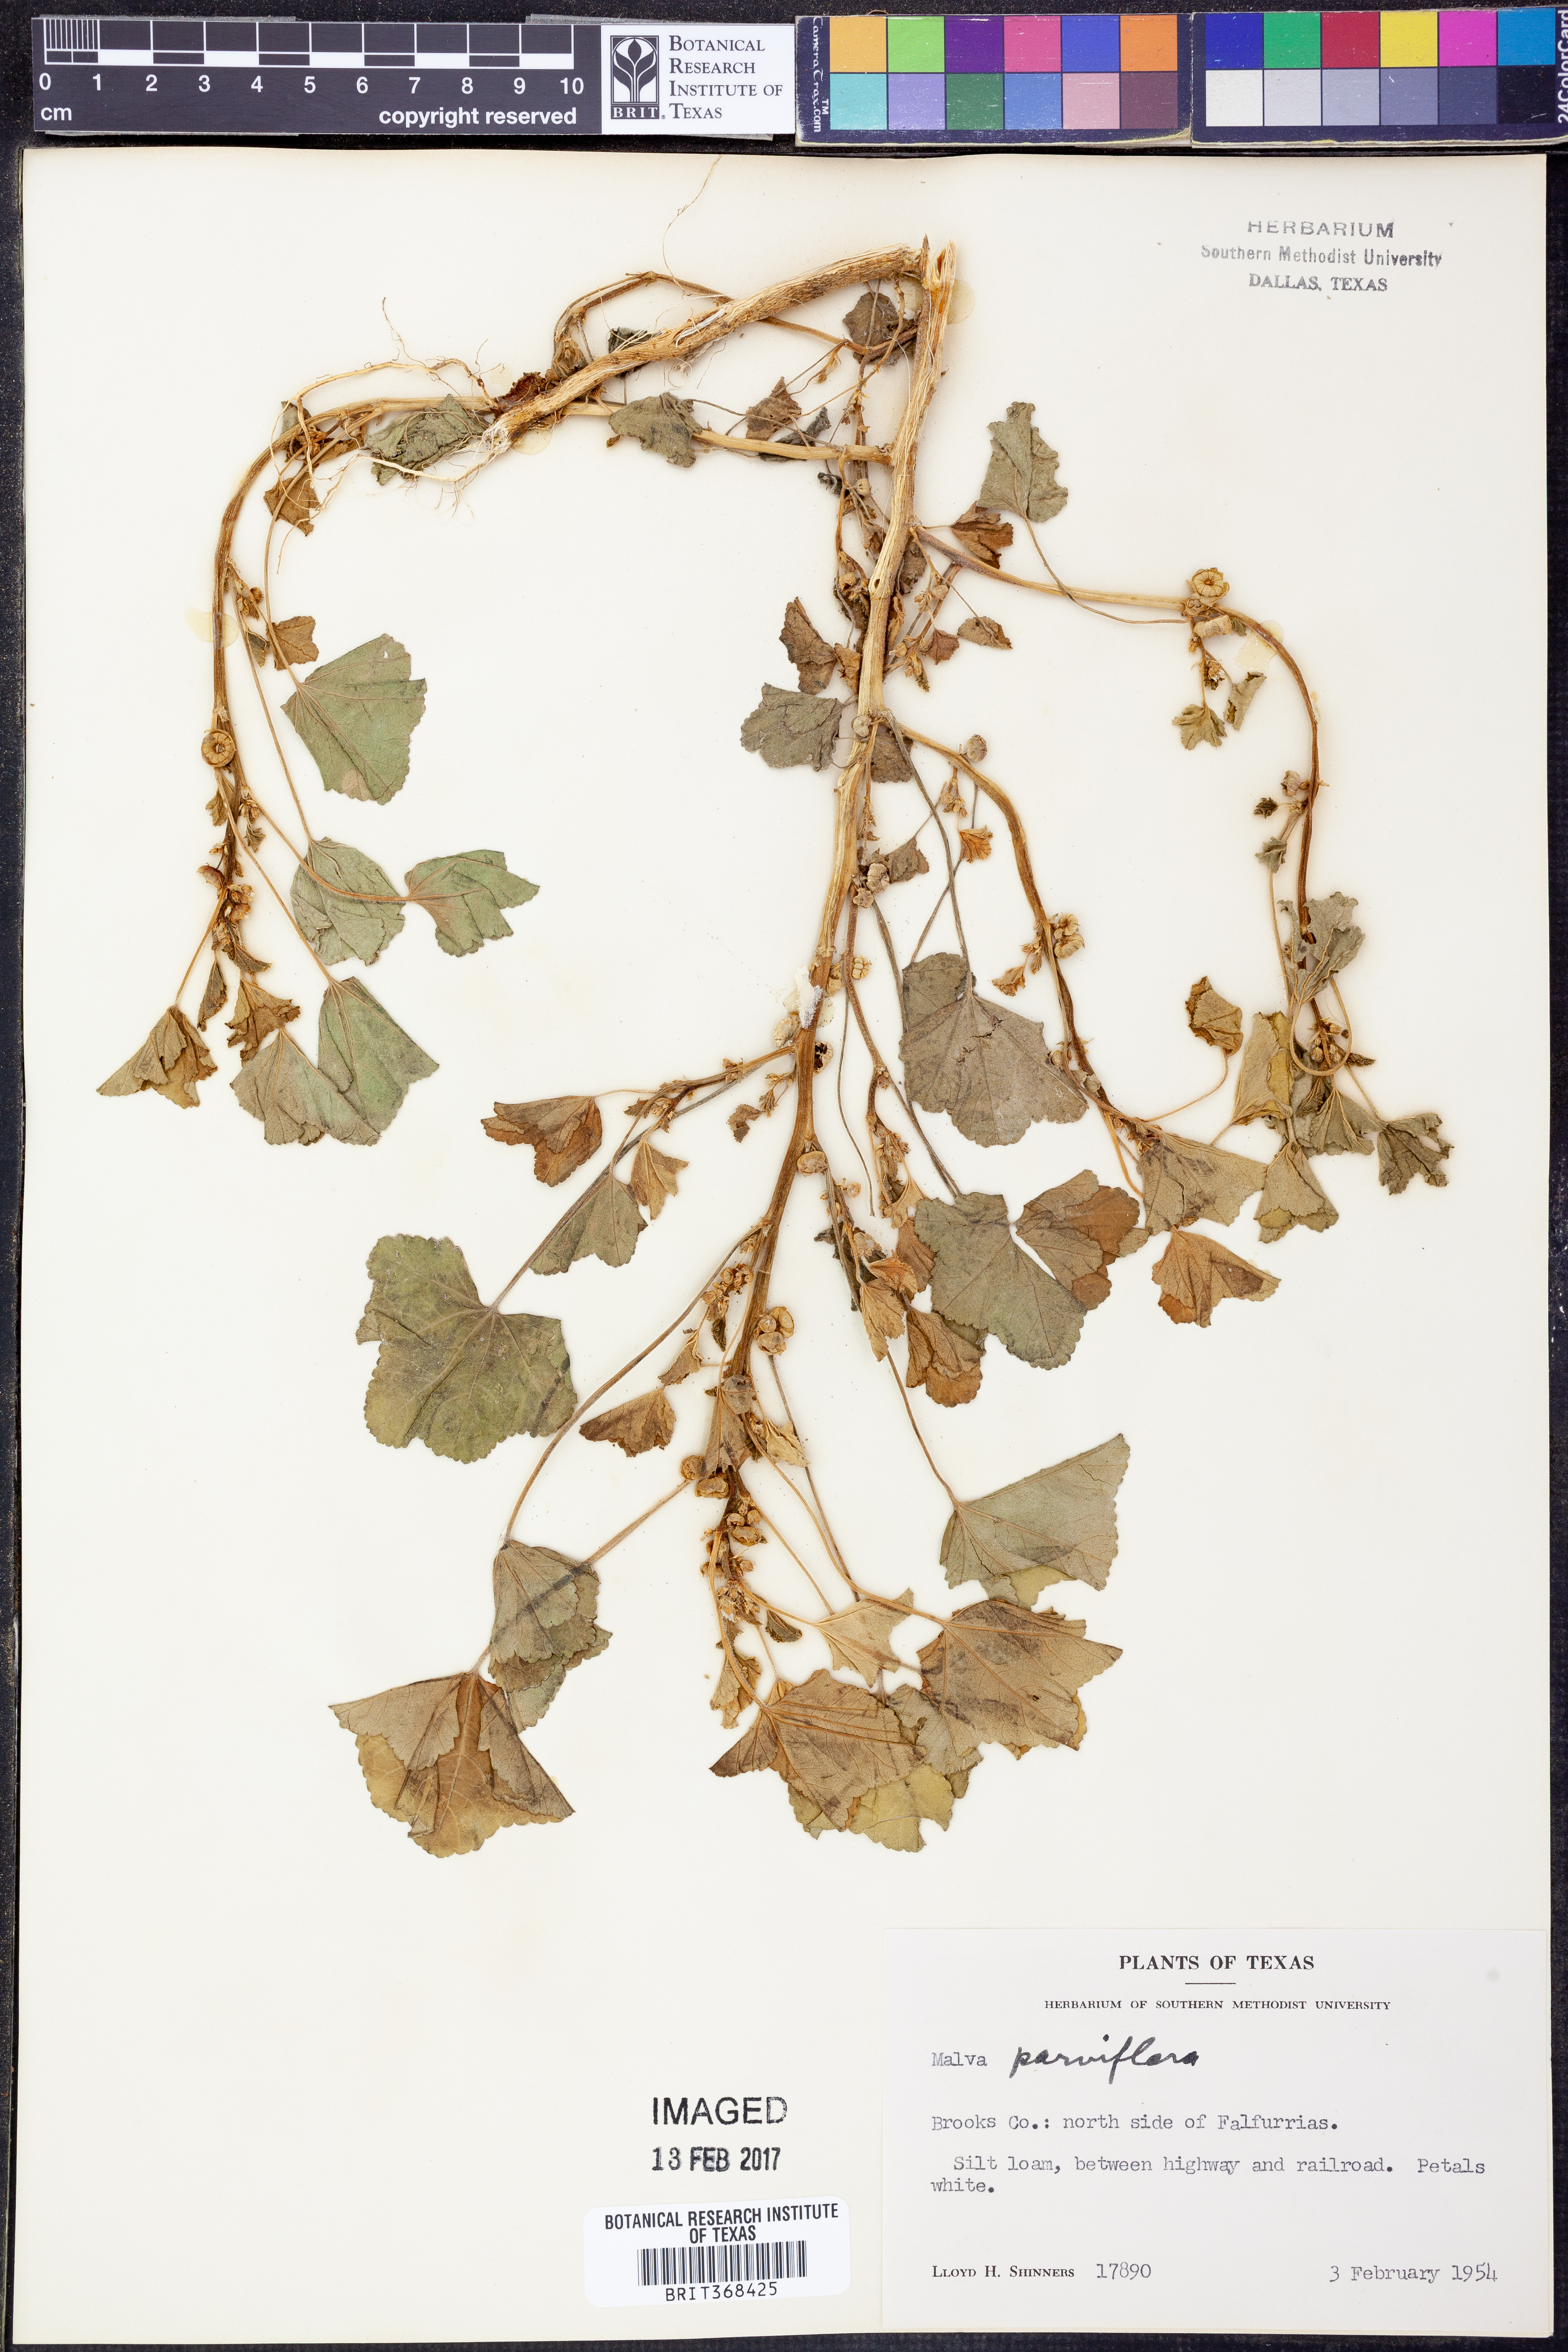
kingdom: Plantae
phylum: Tracheophyta
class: Magnoliopsida
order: Malvales
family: Malvaceae
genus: Malva
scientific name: Malva parviflora
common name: Least mallow
